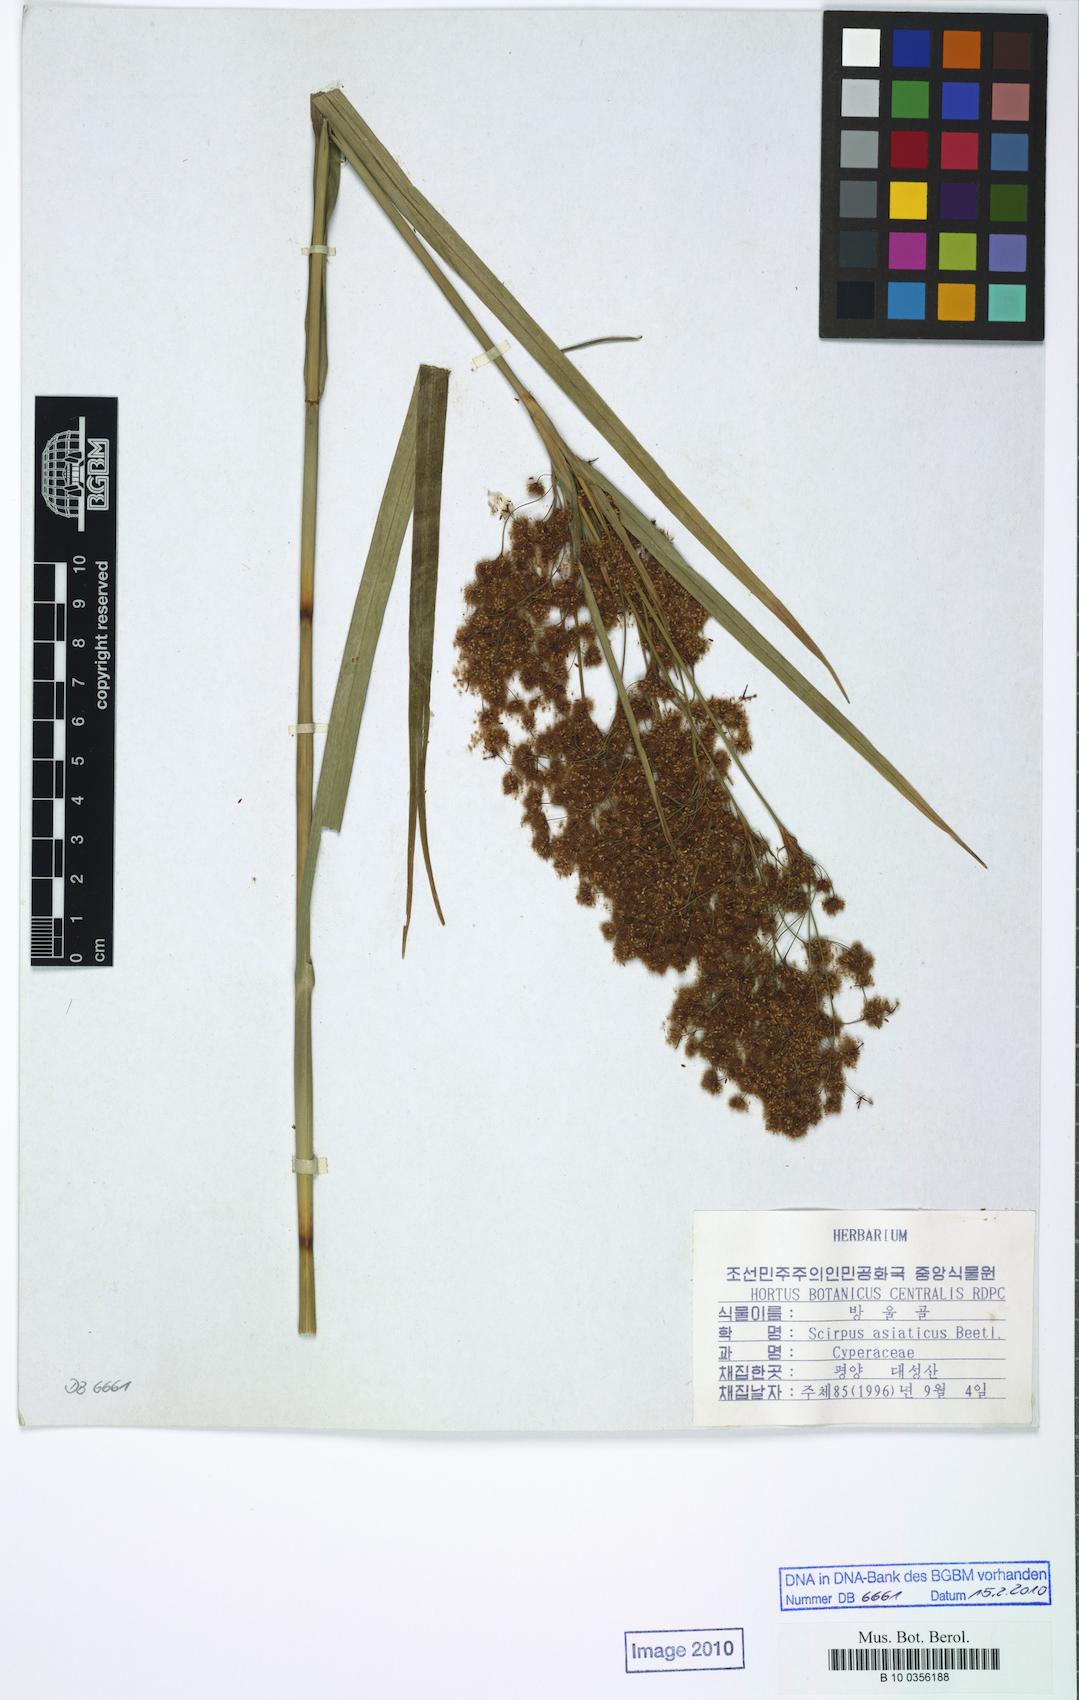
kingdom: Plantae
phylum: Tracheophyta
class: Liliopsida
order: Poales
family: Cyperaceae
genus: Scirpus
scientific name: Scirpus wichurae
